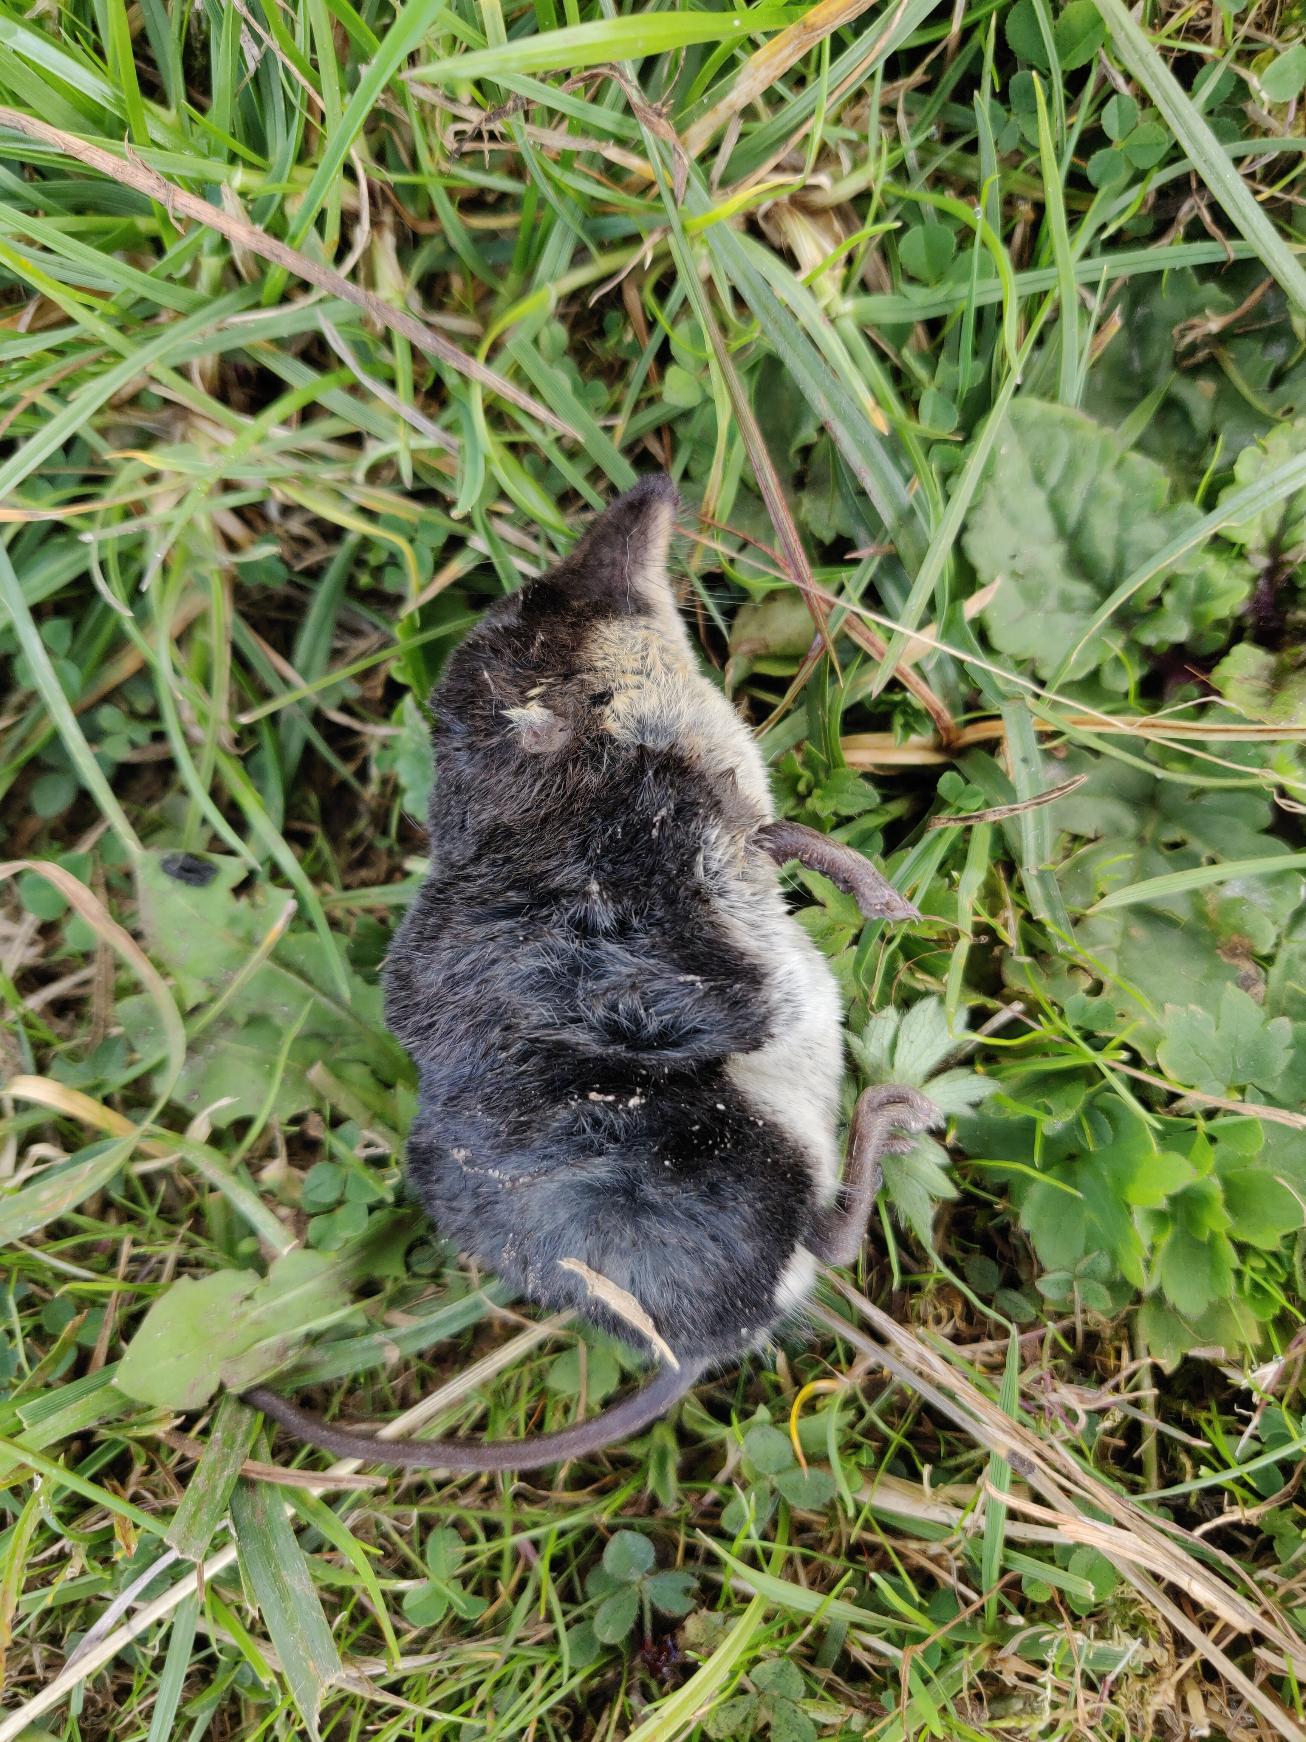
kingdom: Animalia
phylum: Chordata
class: Mammalia
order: Soricomorpha
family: Soricidae
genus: Neomys
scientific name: Neomys fodiens
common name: Vandspidsmus
